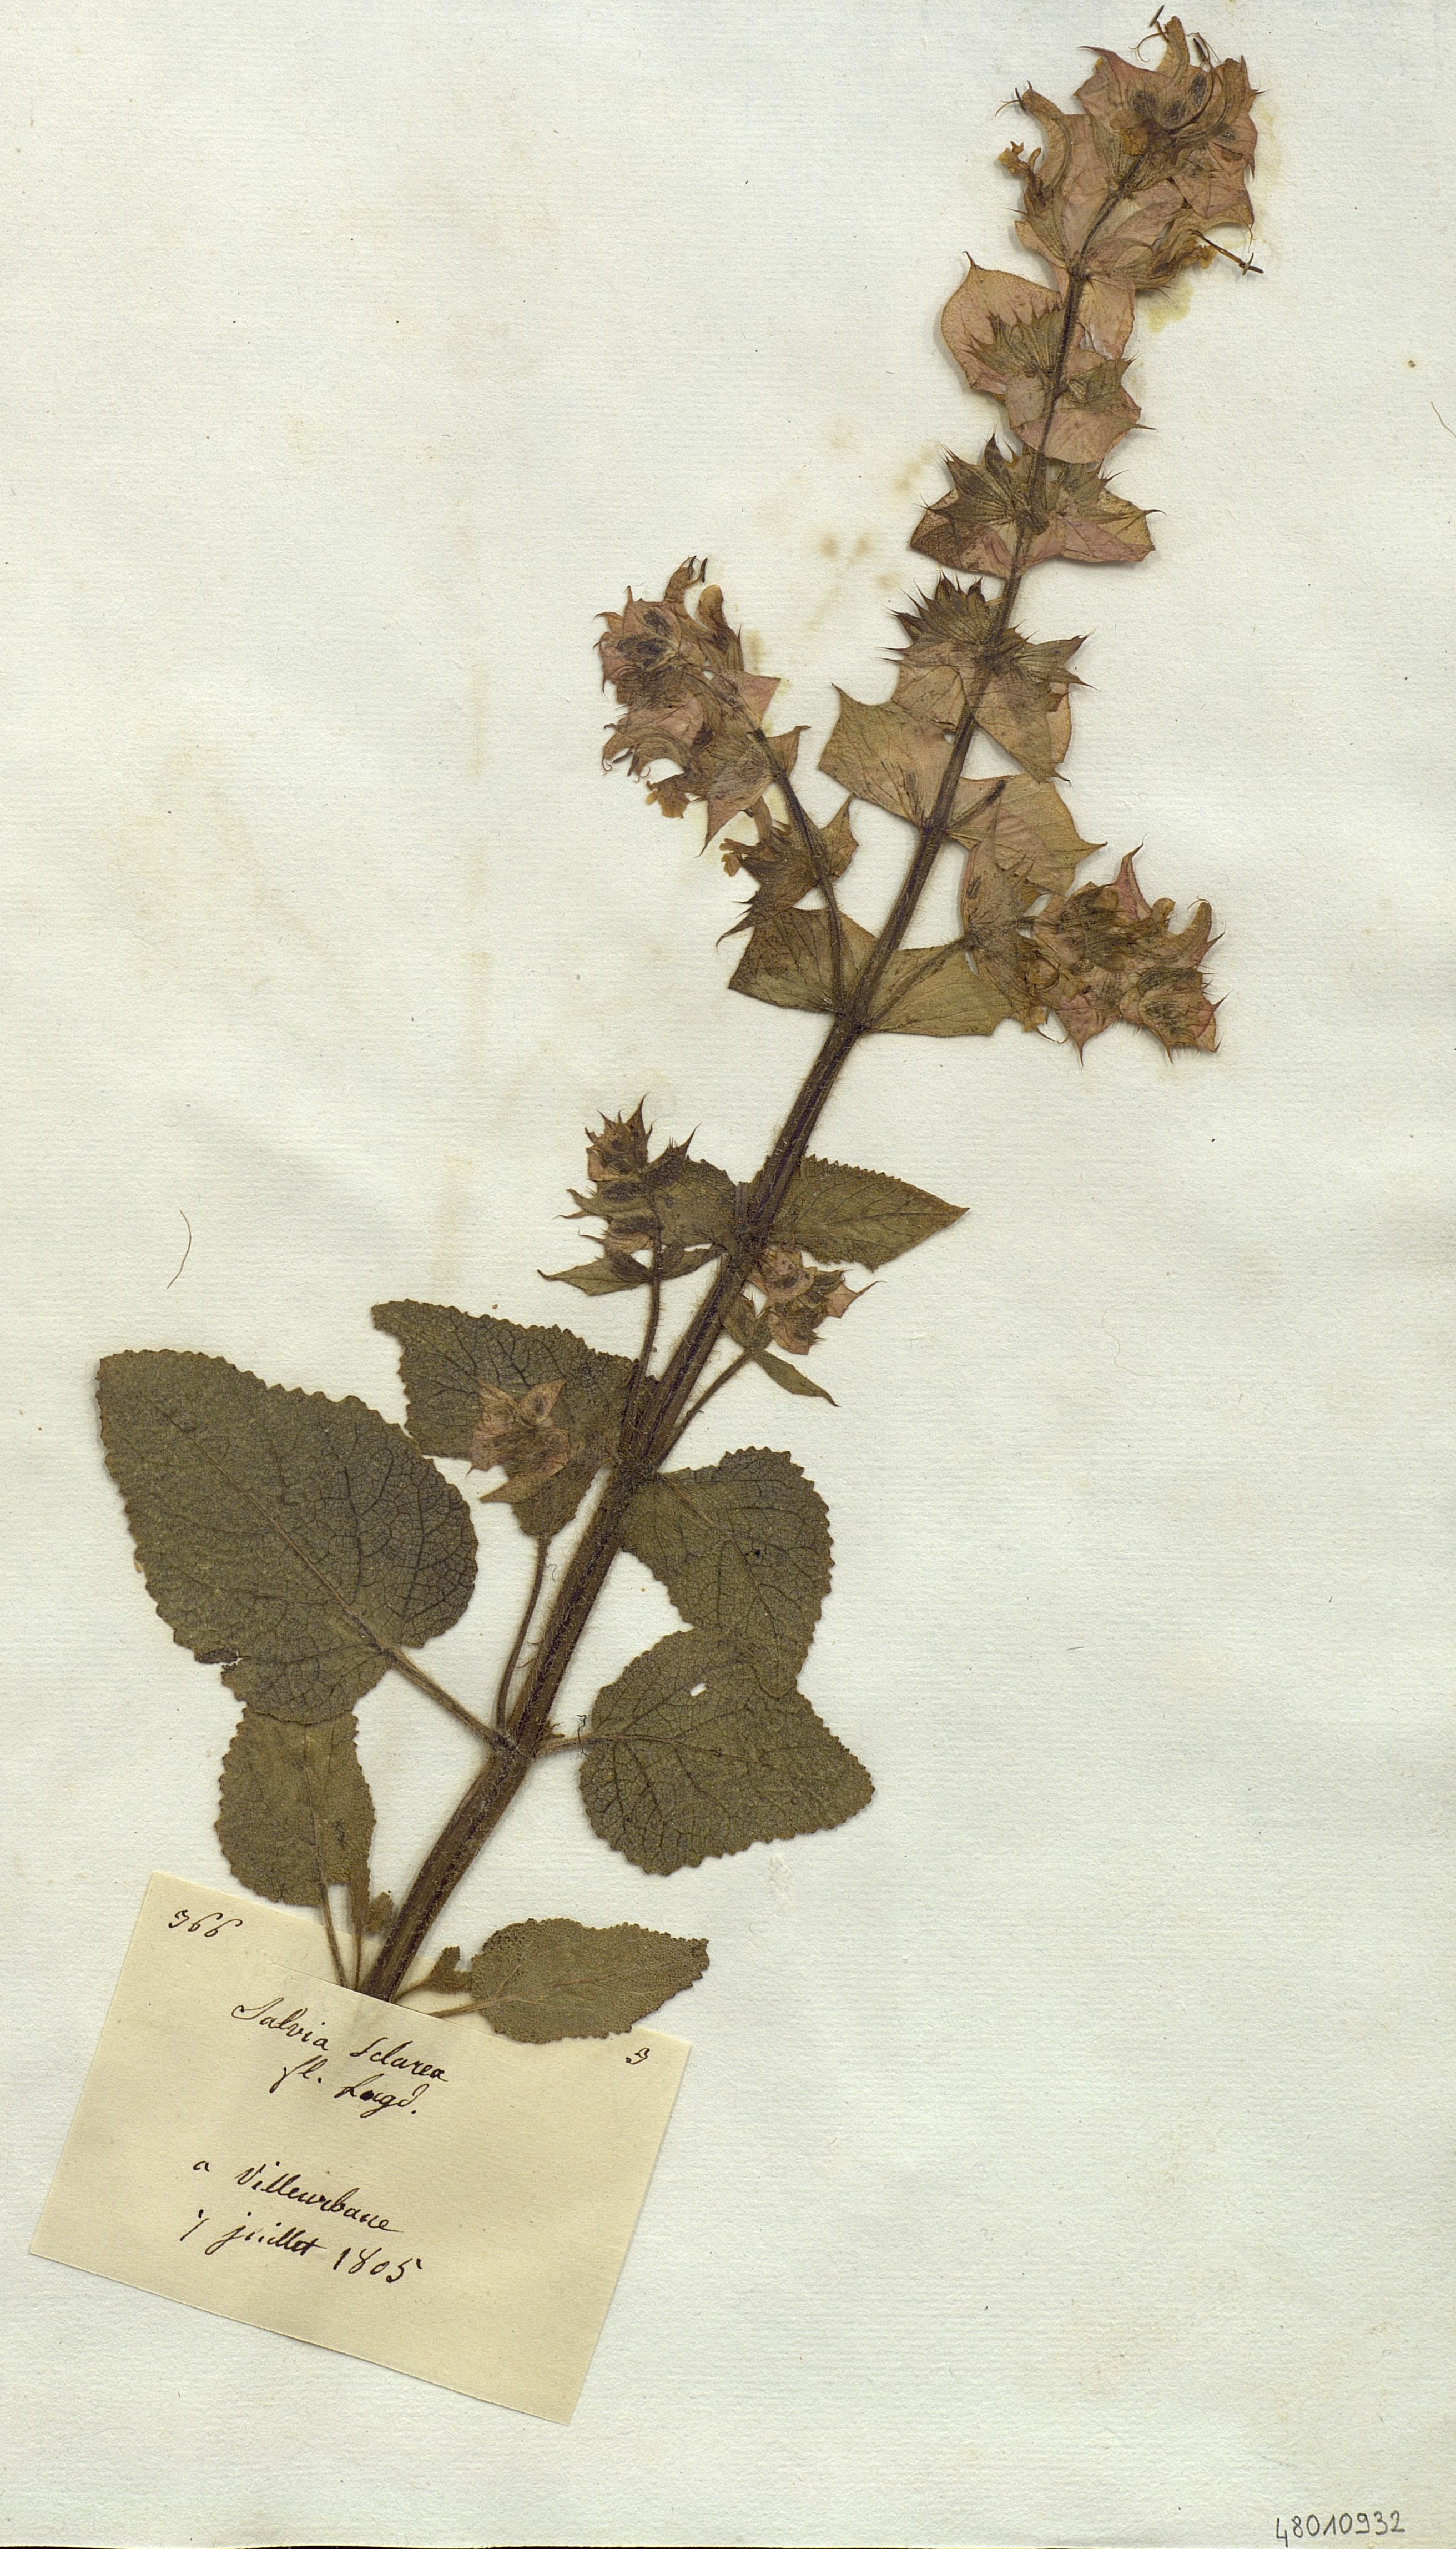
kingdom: Plantae
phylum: Tracheophyta
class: Magnoliopsida
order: Lamiales
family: Lamiaceae
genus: Salvia
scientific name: Salvia sclarea
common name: Clary
